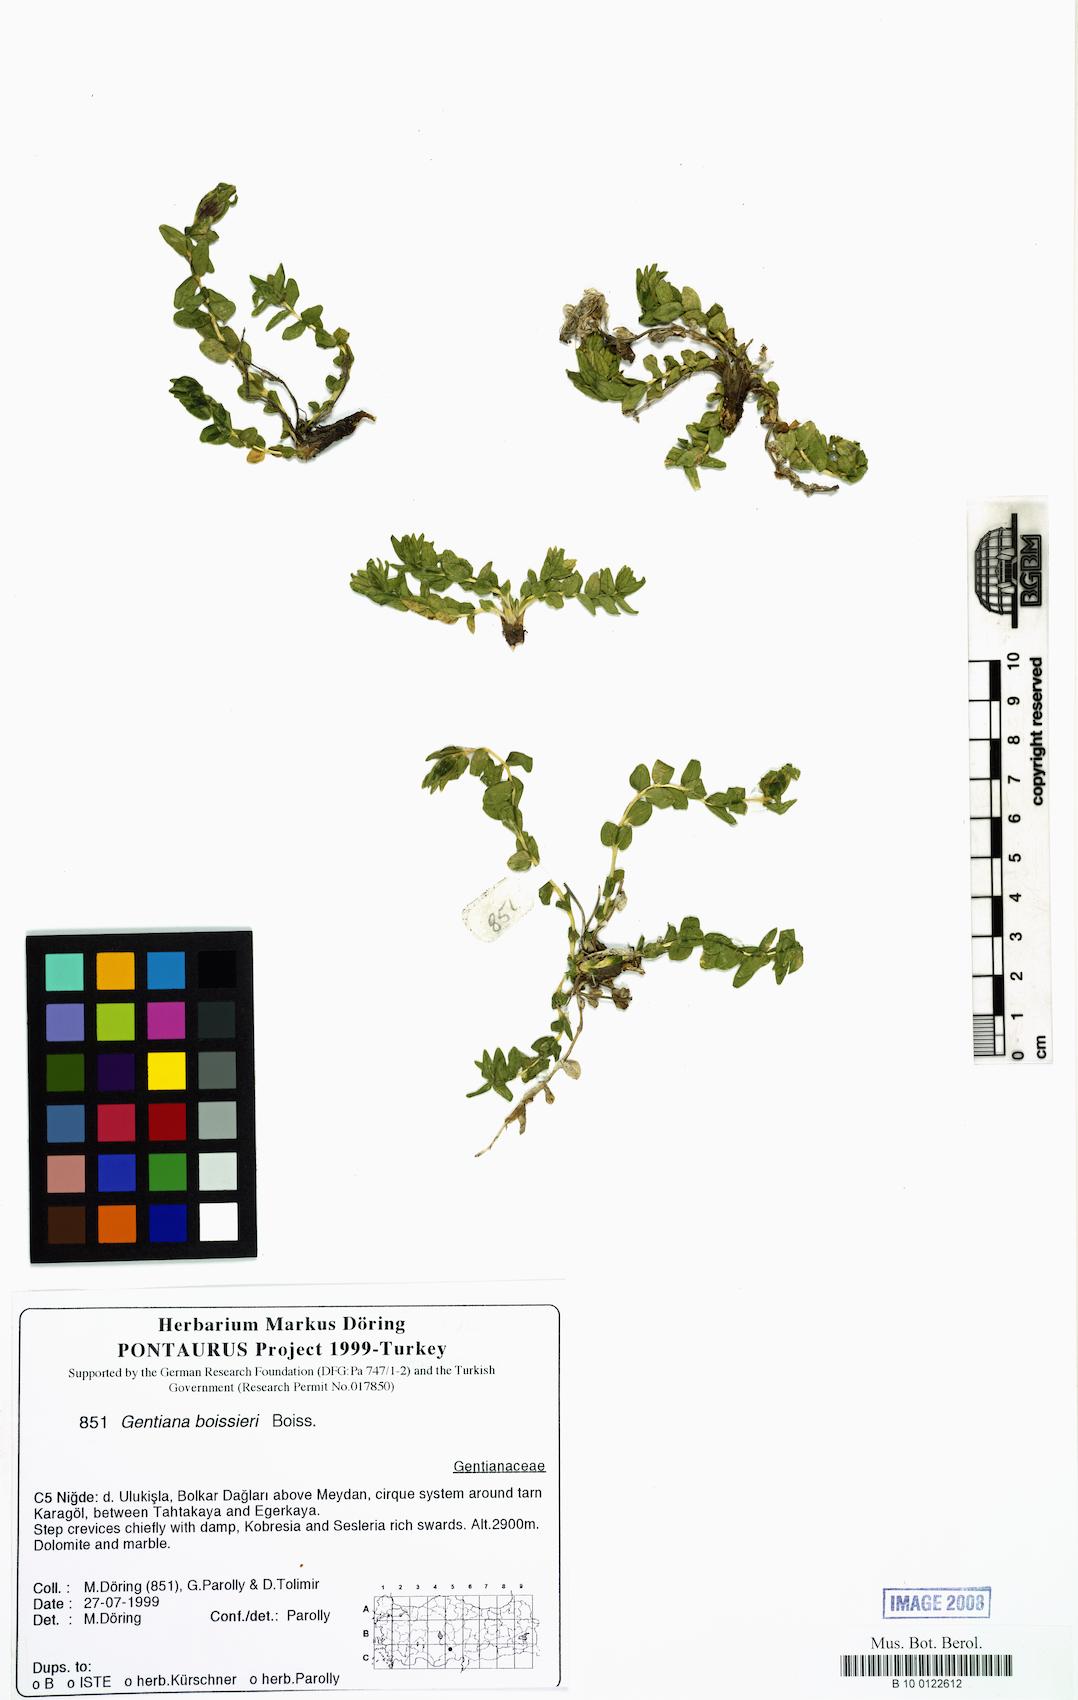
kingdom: Plantae
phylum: Tracheophyta
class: Magnoliopsida
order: Gentianales
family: Gentianaceae
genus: Gentiana
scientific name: Gentiana boissieri
